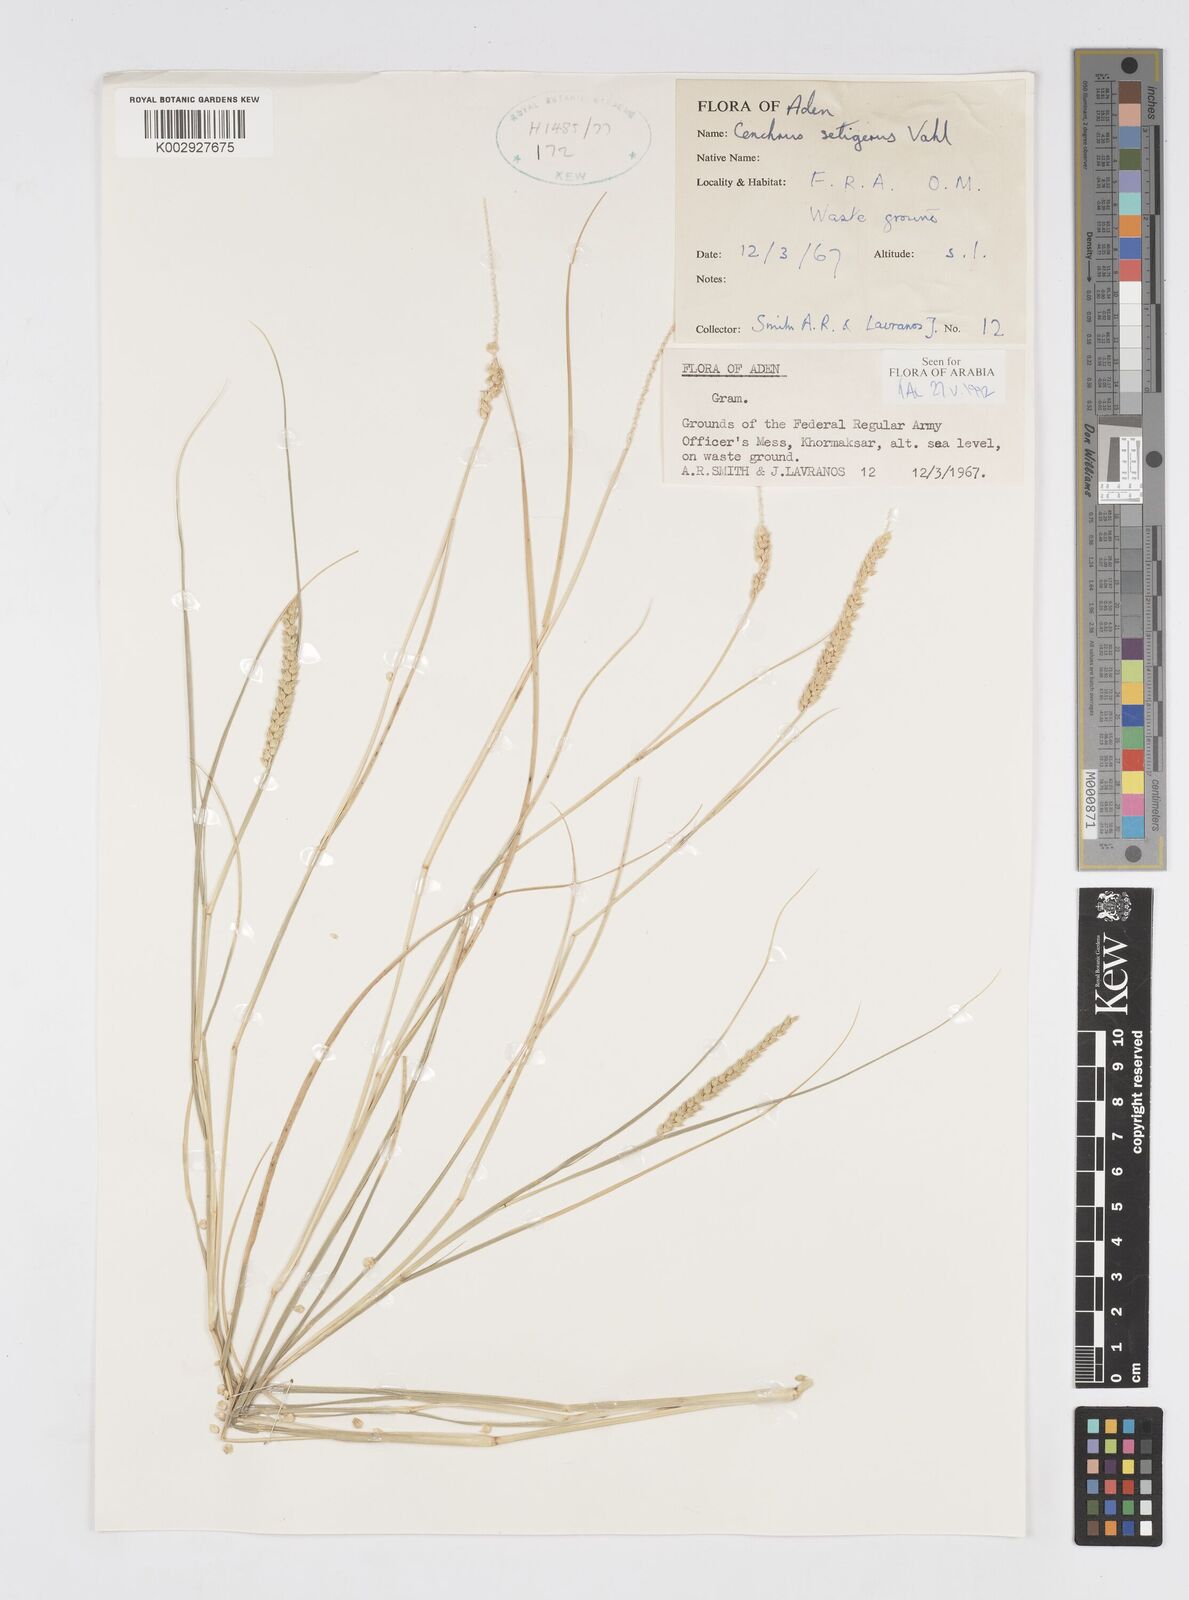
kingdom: Plantae
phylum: Tracheophyta
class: Liliopsida
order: Poales
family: Poaceae
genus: Cenchrus
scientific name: Cenchrus setigerus
